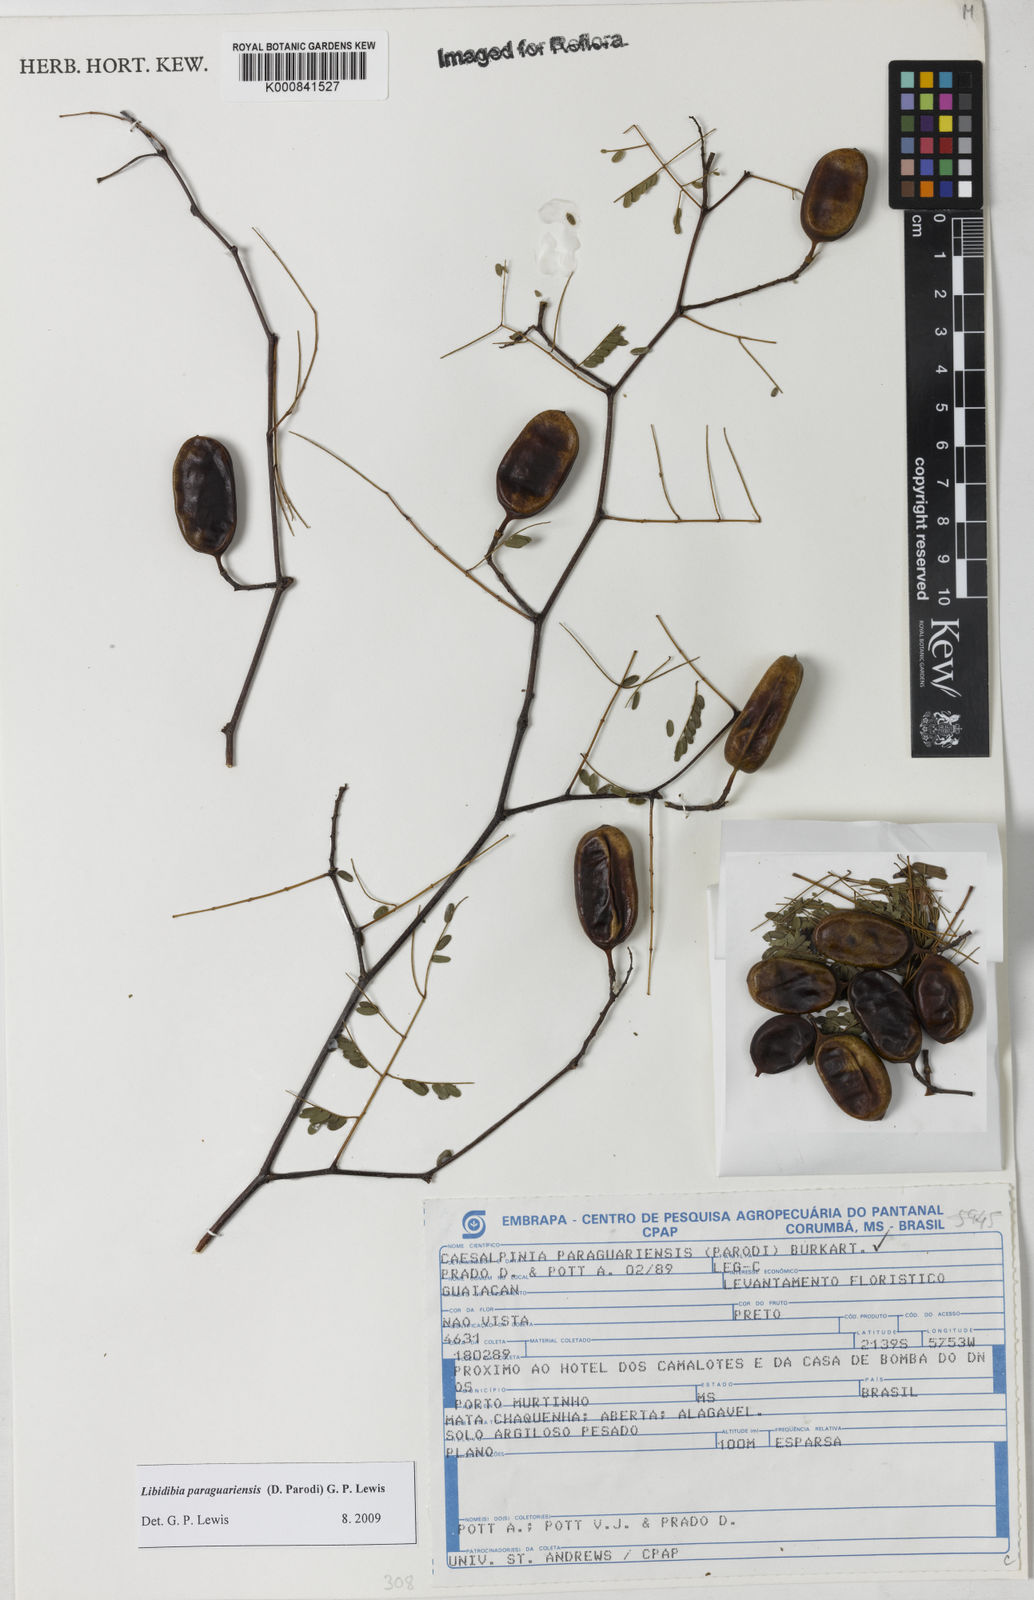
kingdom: Plantae
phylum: Tracheophyta
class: Magnoliopsida
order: Fabales
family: Fabaceae
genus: Libidibia
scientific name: Libidibia paraguariensis
